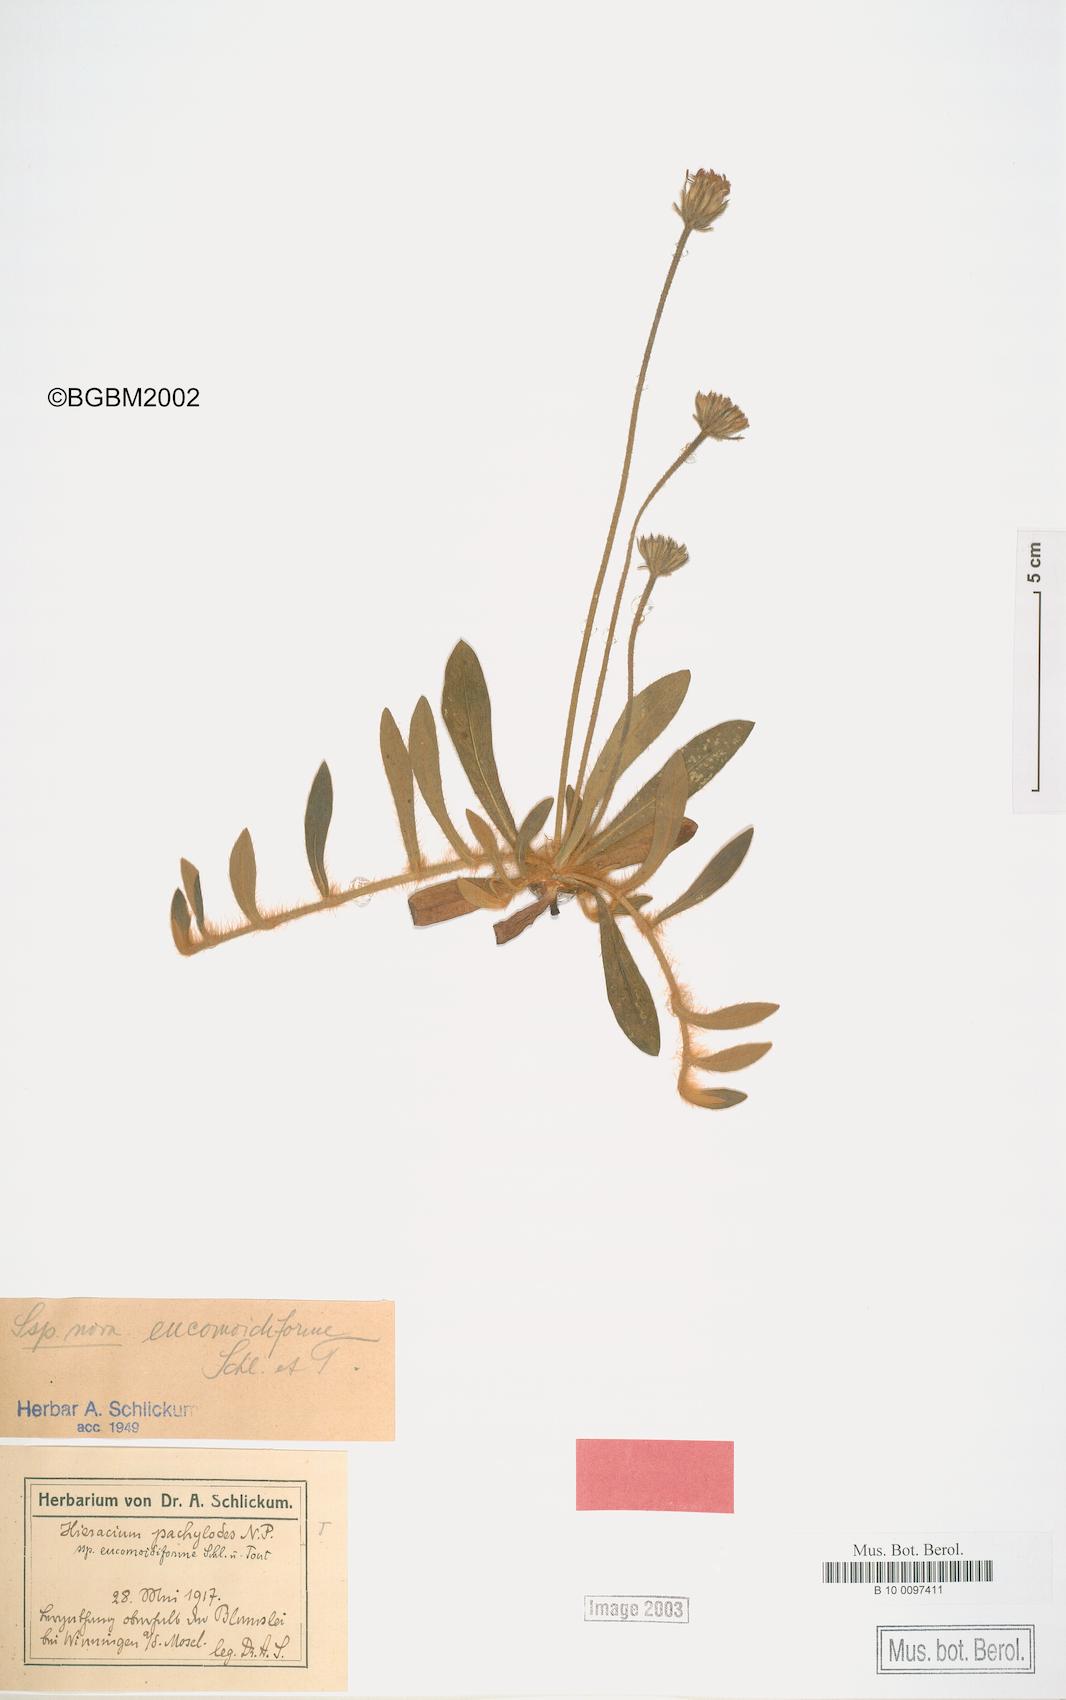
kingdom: Plantae
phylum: Tracheophyta
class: Magnoliopsida
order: Asterales
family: Asteraceae
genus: Pilosella
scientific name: Pilosella longisquama
